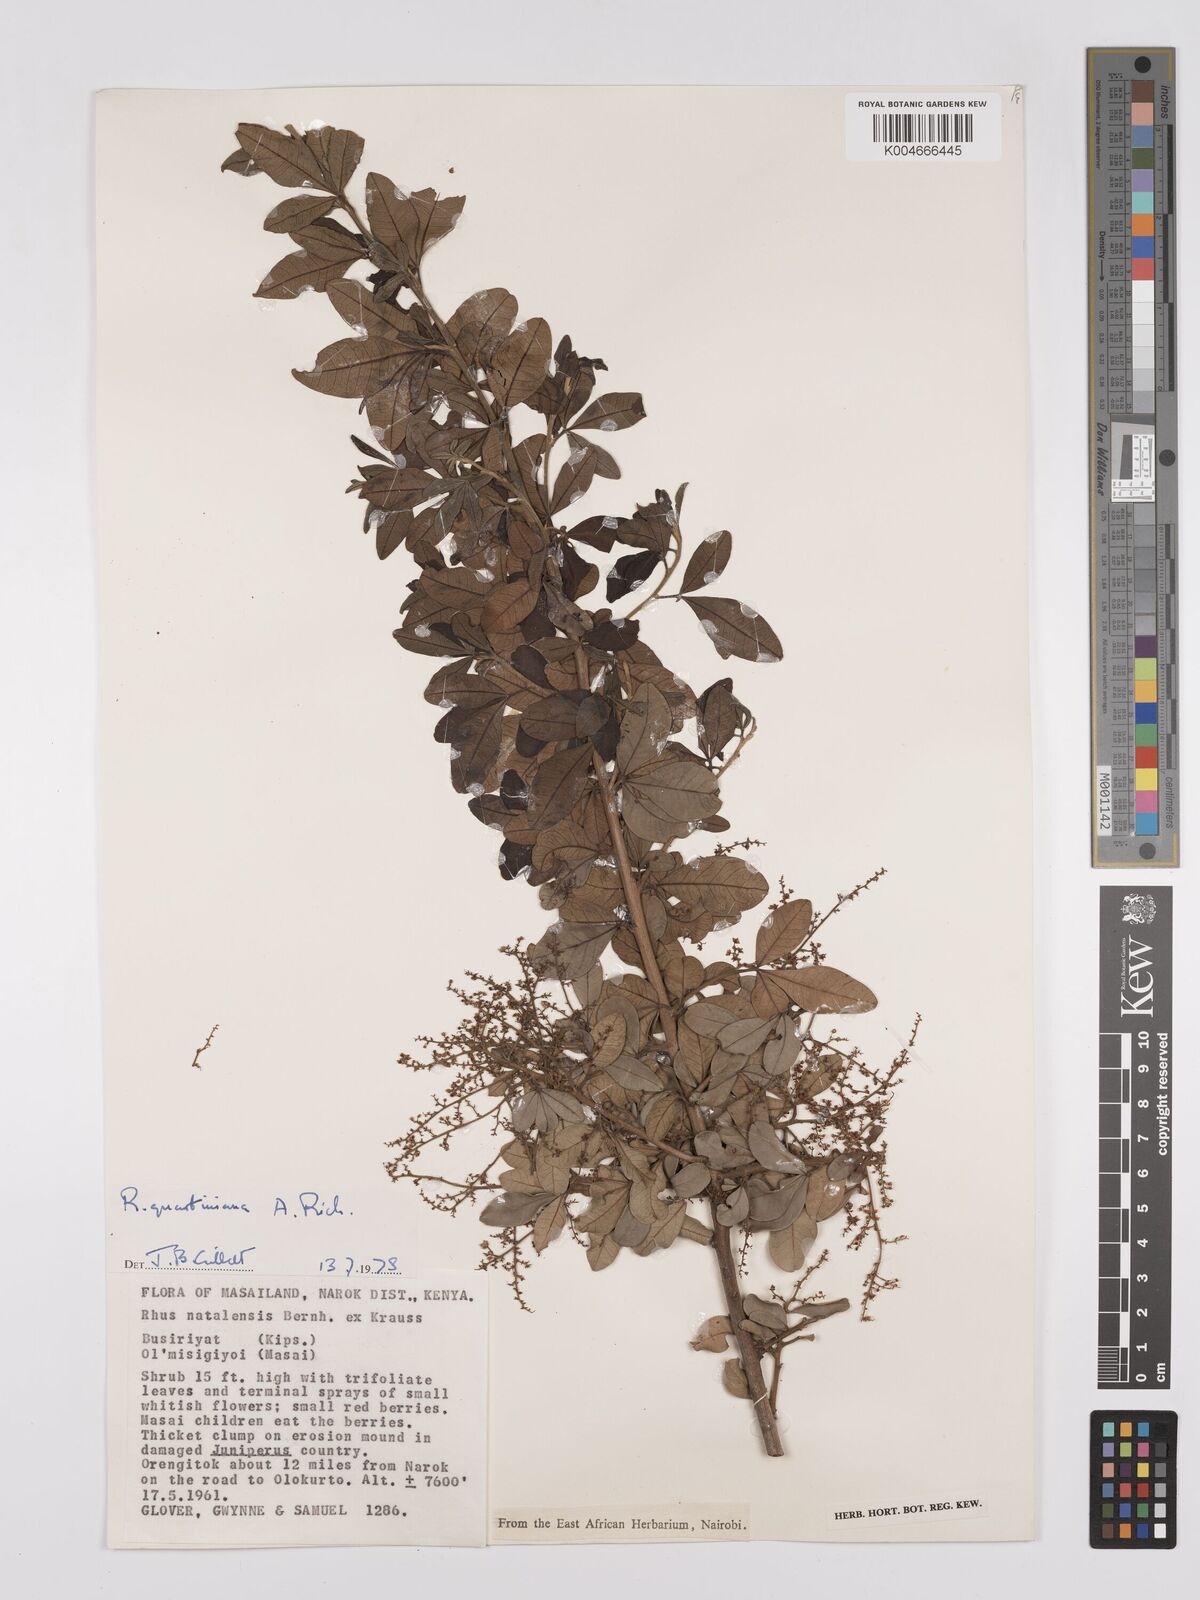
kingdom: Plantae
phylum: Tracheophyta
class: Magnoliopsida
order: Sapindales
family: Anacardiaceae
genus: Searsia
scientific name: Searsia quartiniana
